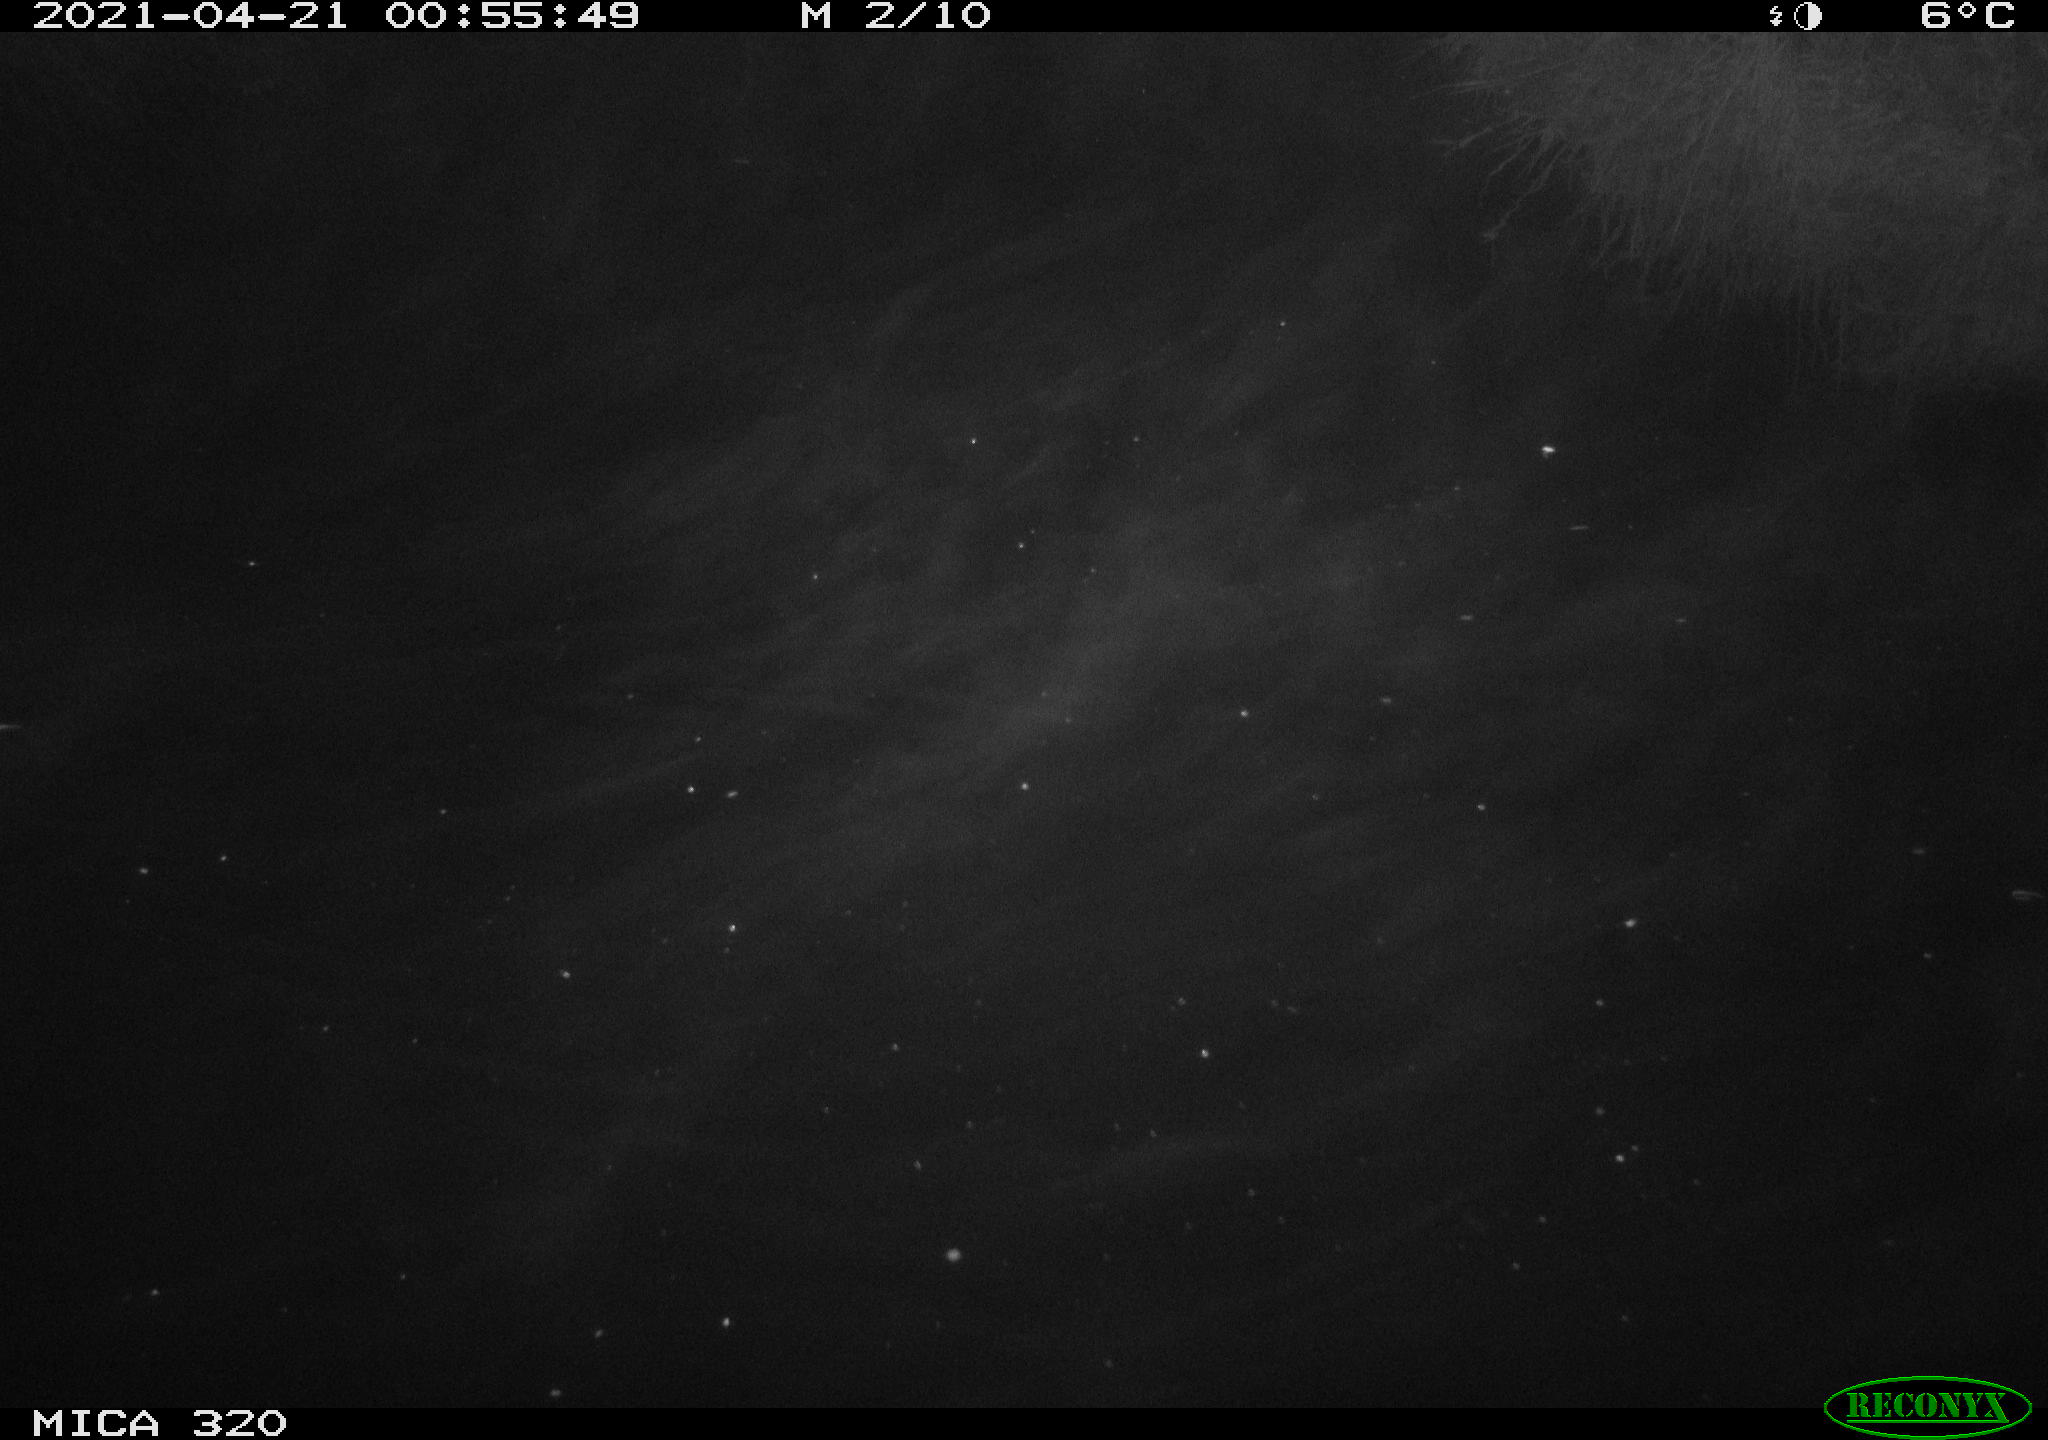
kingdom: Animalia
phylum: Chordata
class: Mammalia
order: Rodentia
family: Muridae
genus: Rattus
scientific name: Rattus norvegicus
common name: Brown rat
